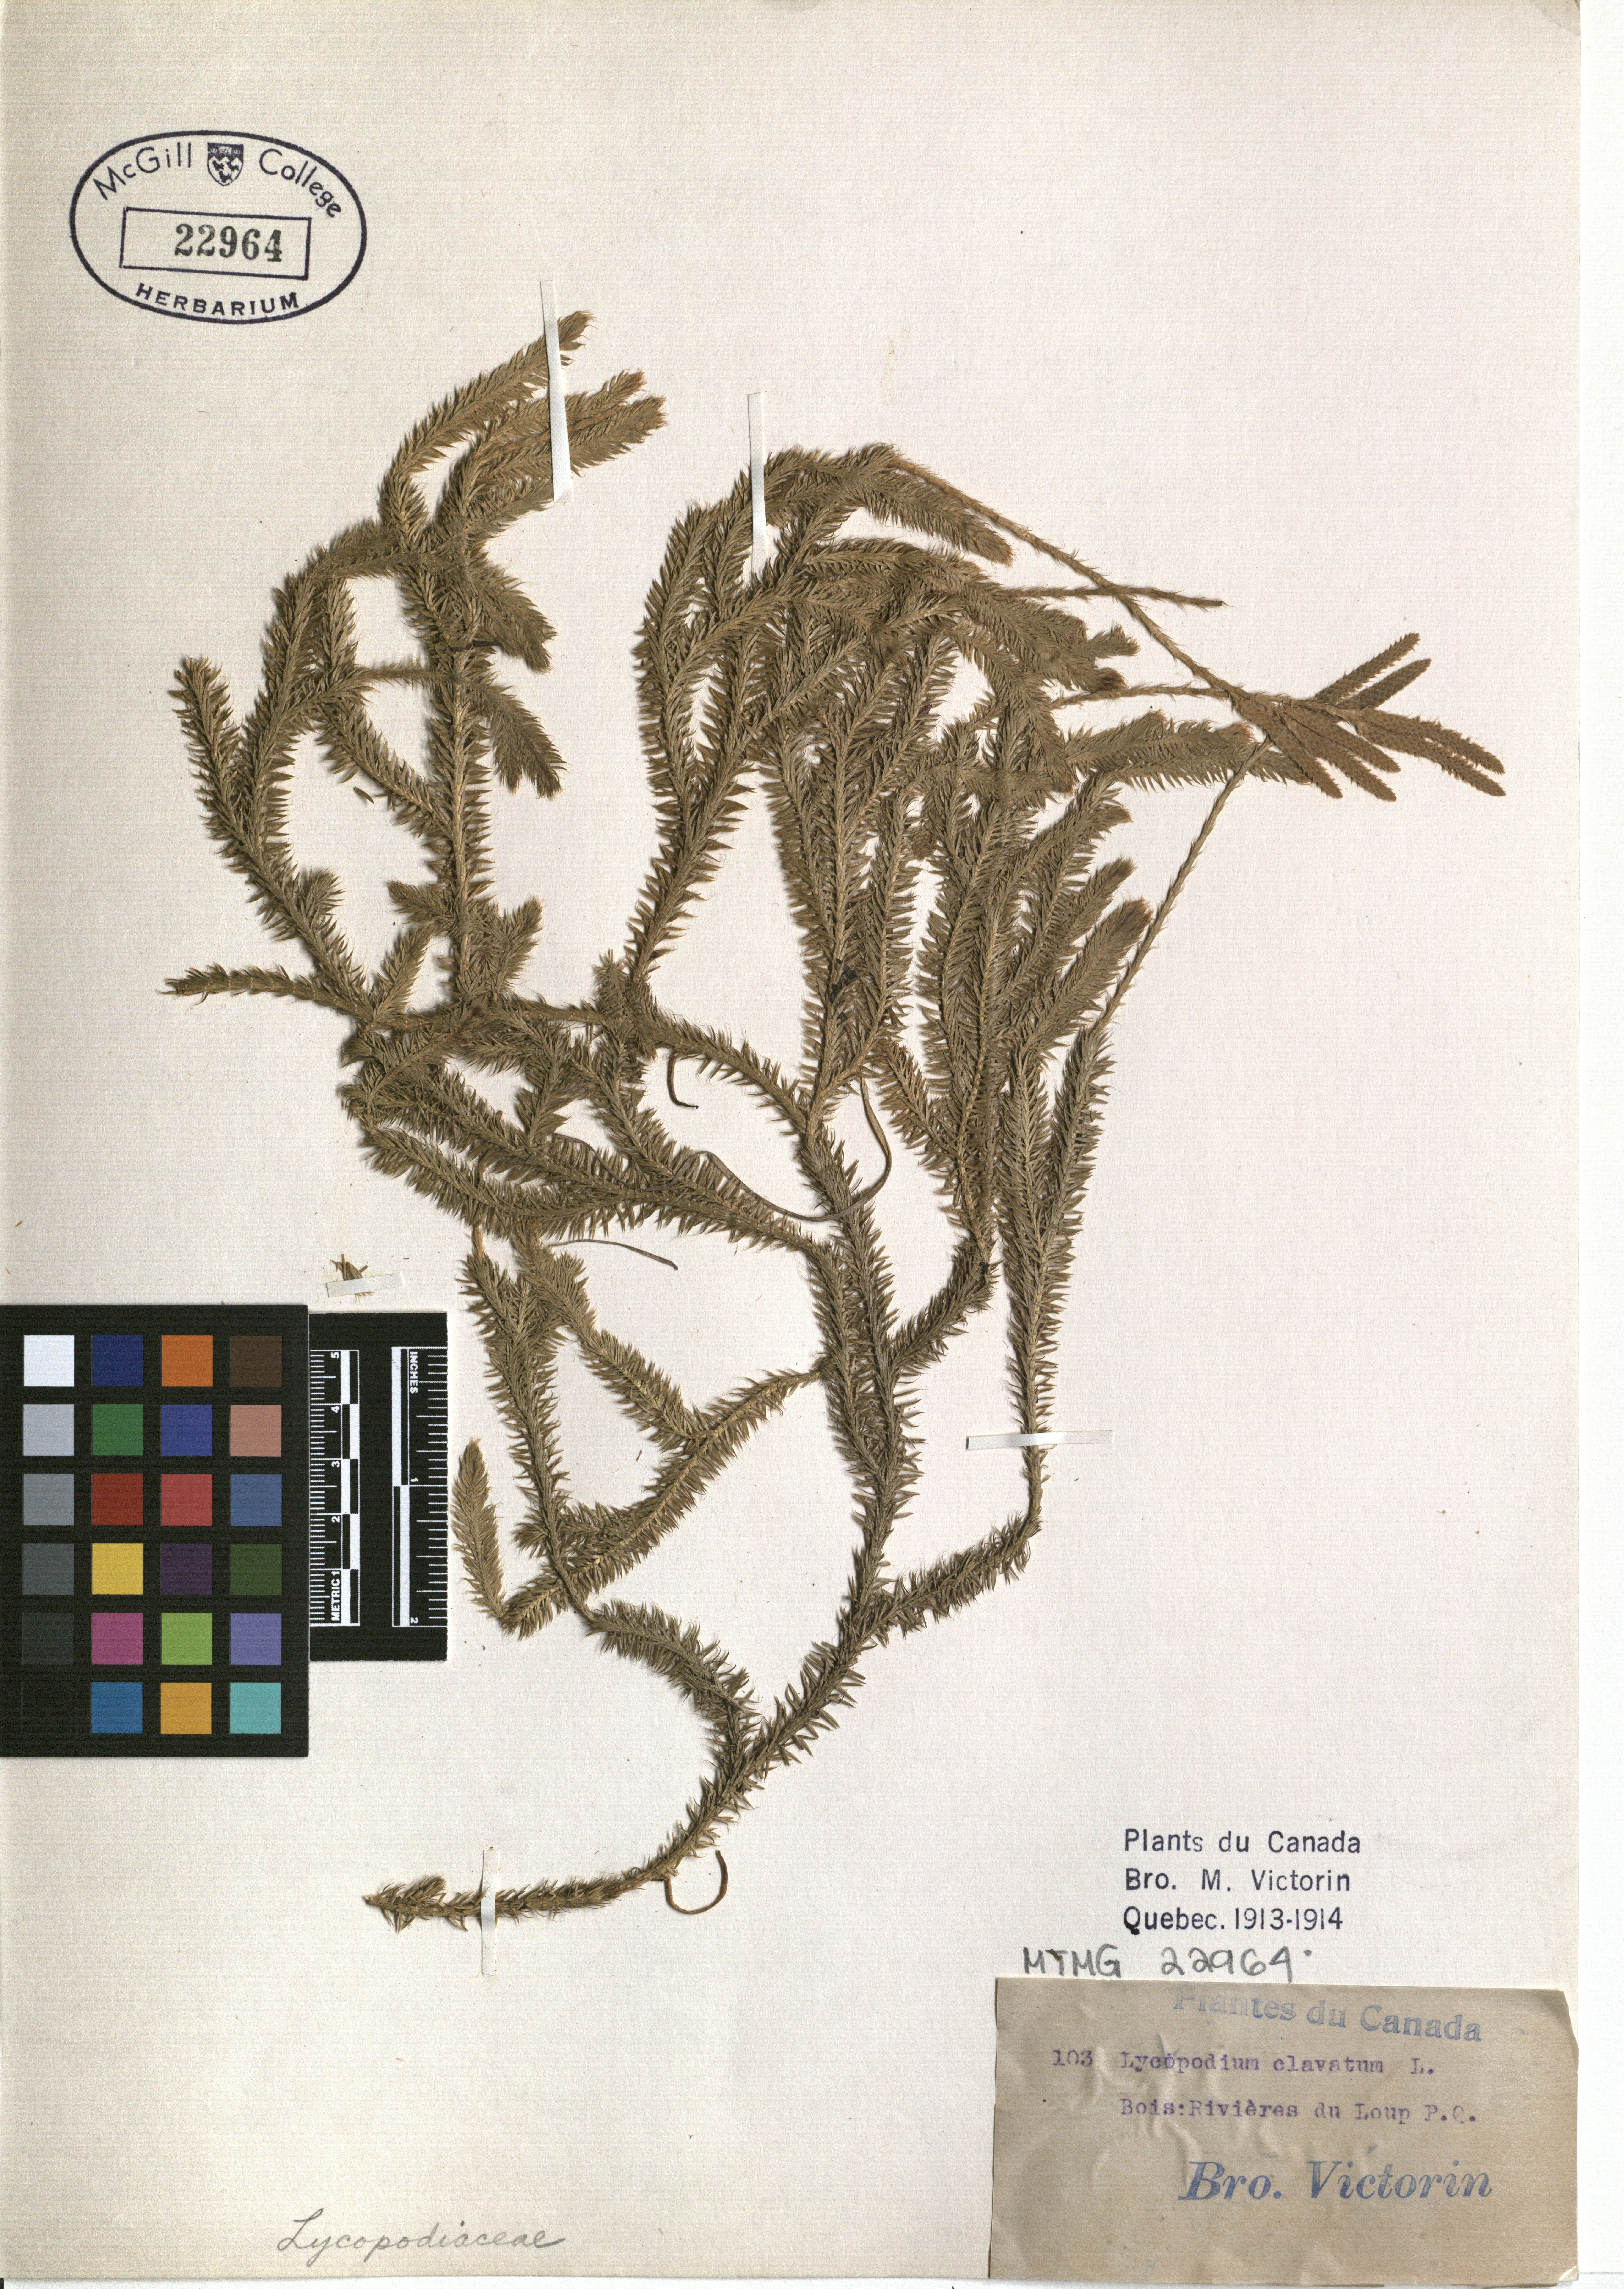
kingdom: Plantae
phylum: Tracheophyta
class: Lycopodiopsida
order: Lycopodiales
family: Lycopodiaceae
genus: Lycopodium
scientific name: Lycopodium clavatum
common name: Stag's-horn clubmoss
